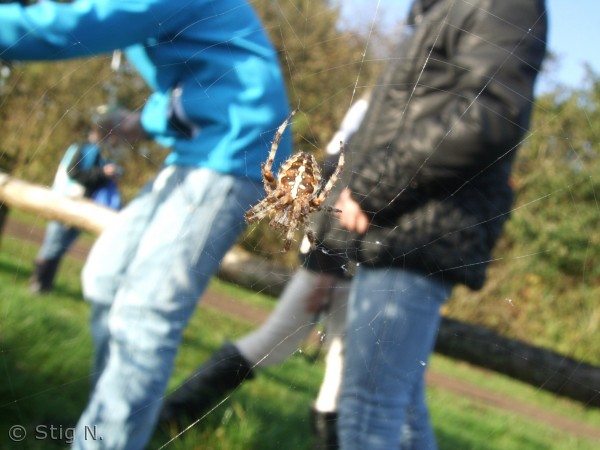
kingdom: Animalia
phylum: Arthropoda
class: Arachnida
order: Araneae
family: Araneidae
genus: Araneus
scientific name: Araneus diadematus
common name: Korsedderkop
